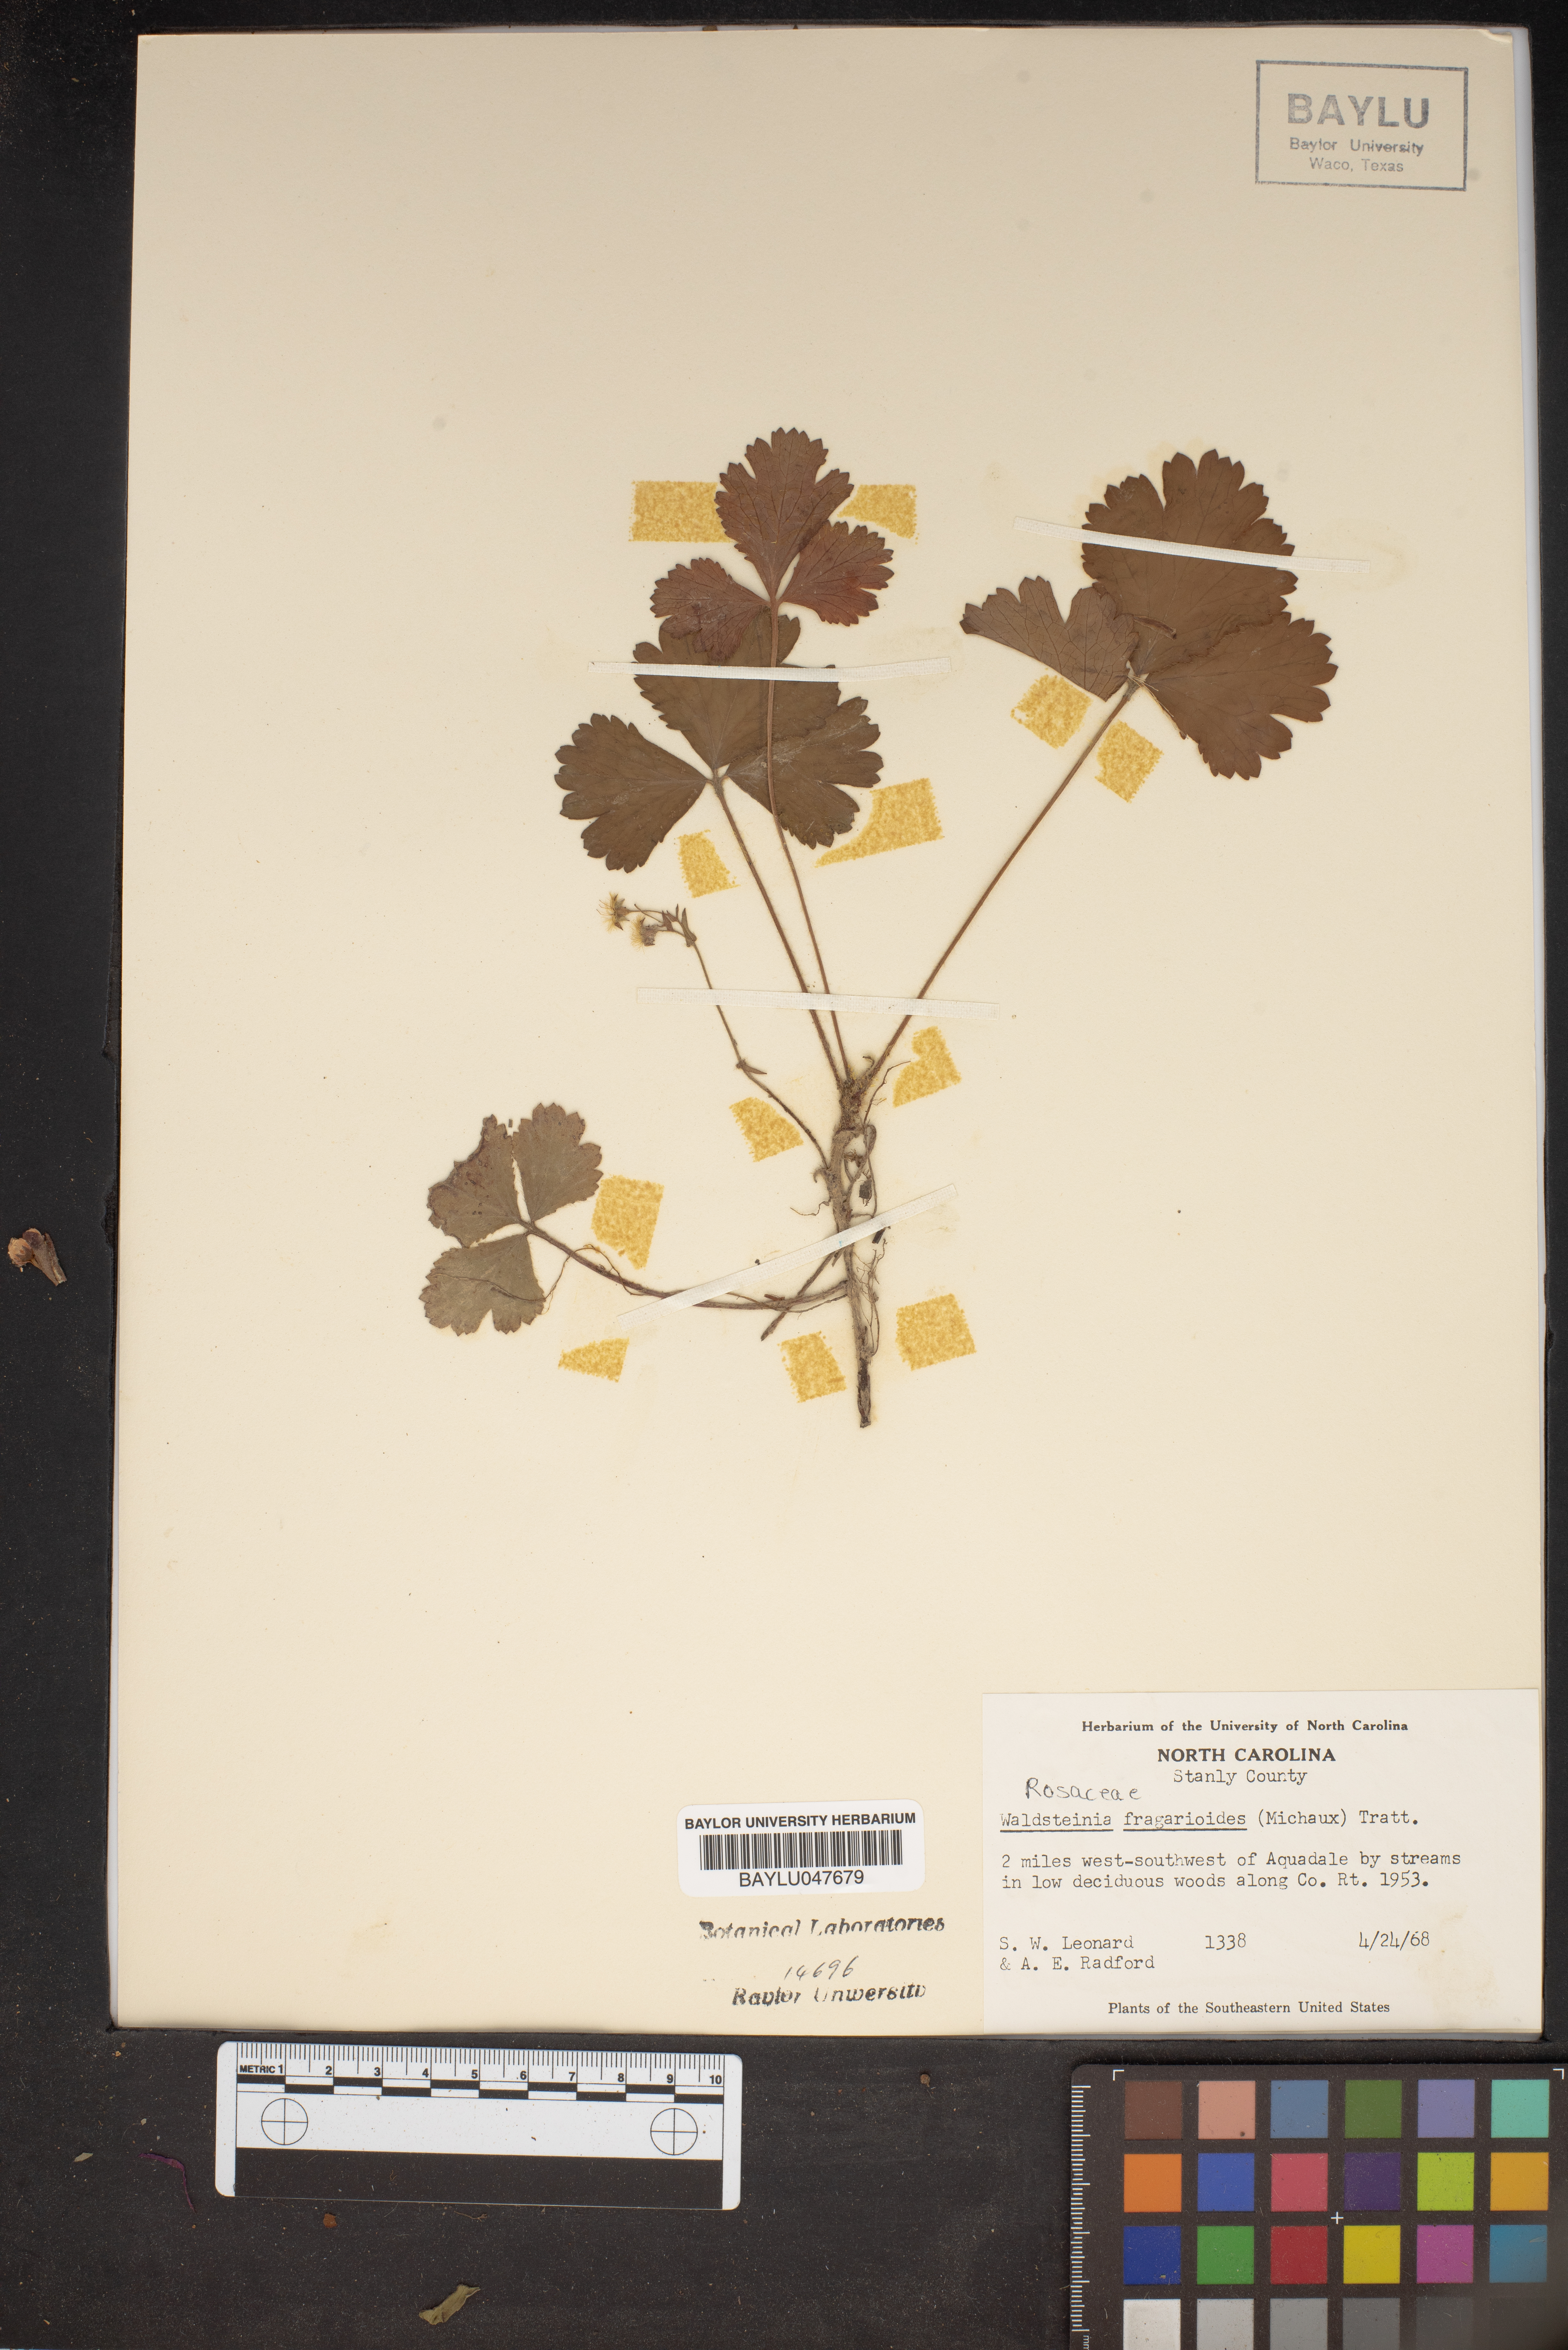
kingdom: Plantae
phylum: Tracheophyta
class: Magnoliopsida
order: Rosales
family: Rosaceae
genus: Geum
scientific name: Geum fragarioides
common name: Appalachian barren strawberry
